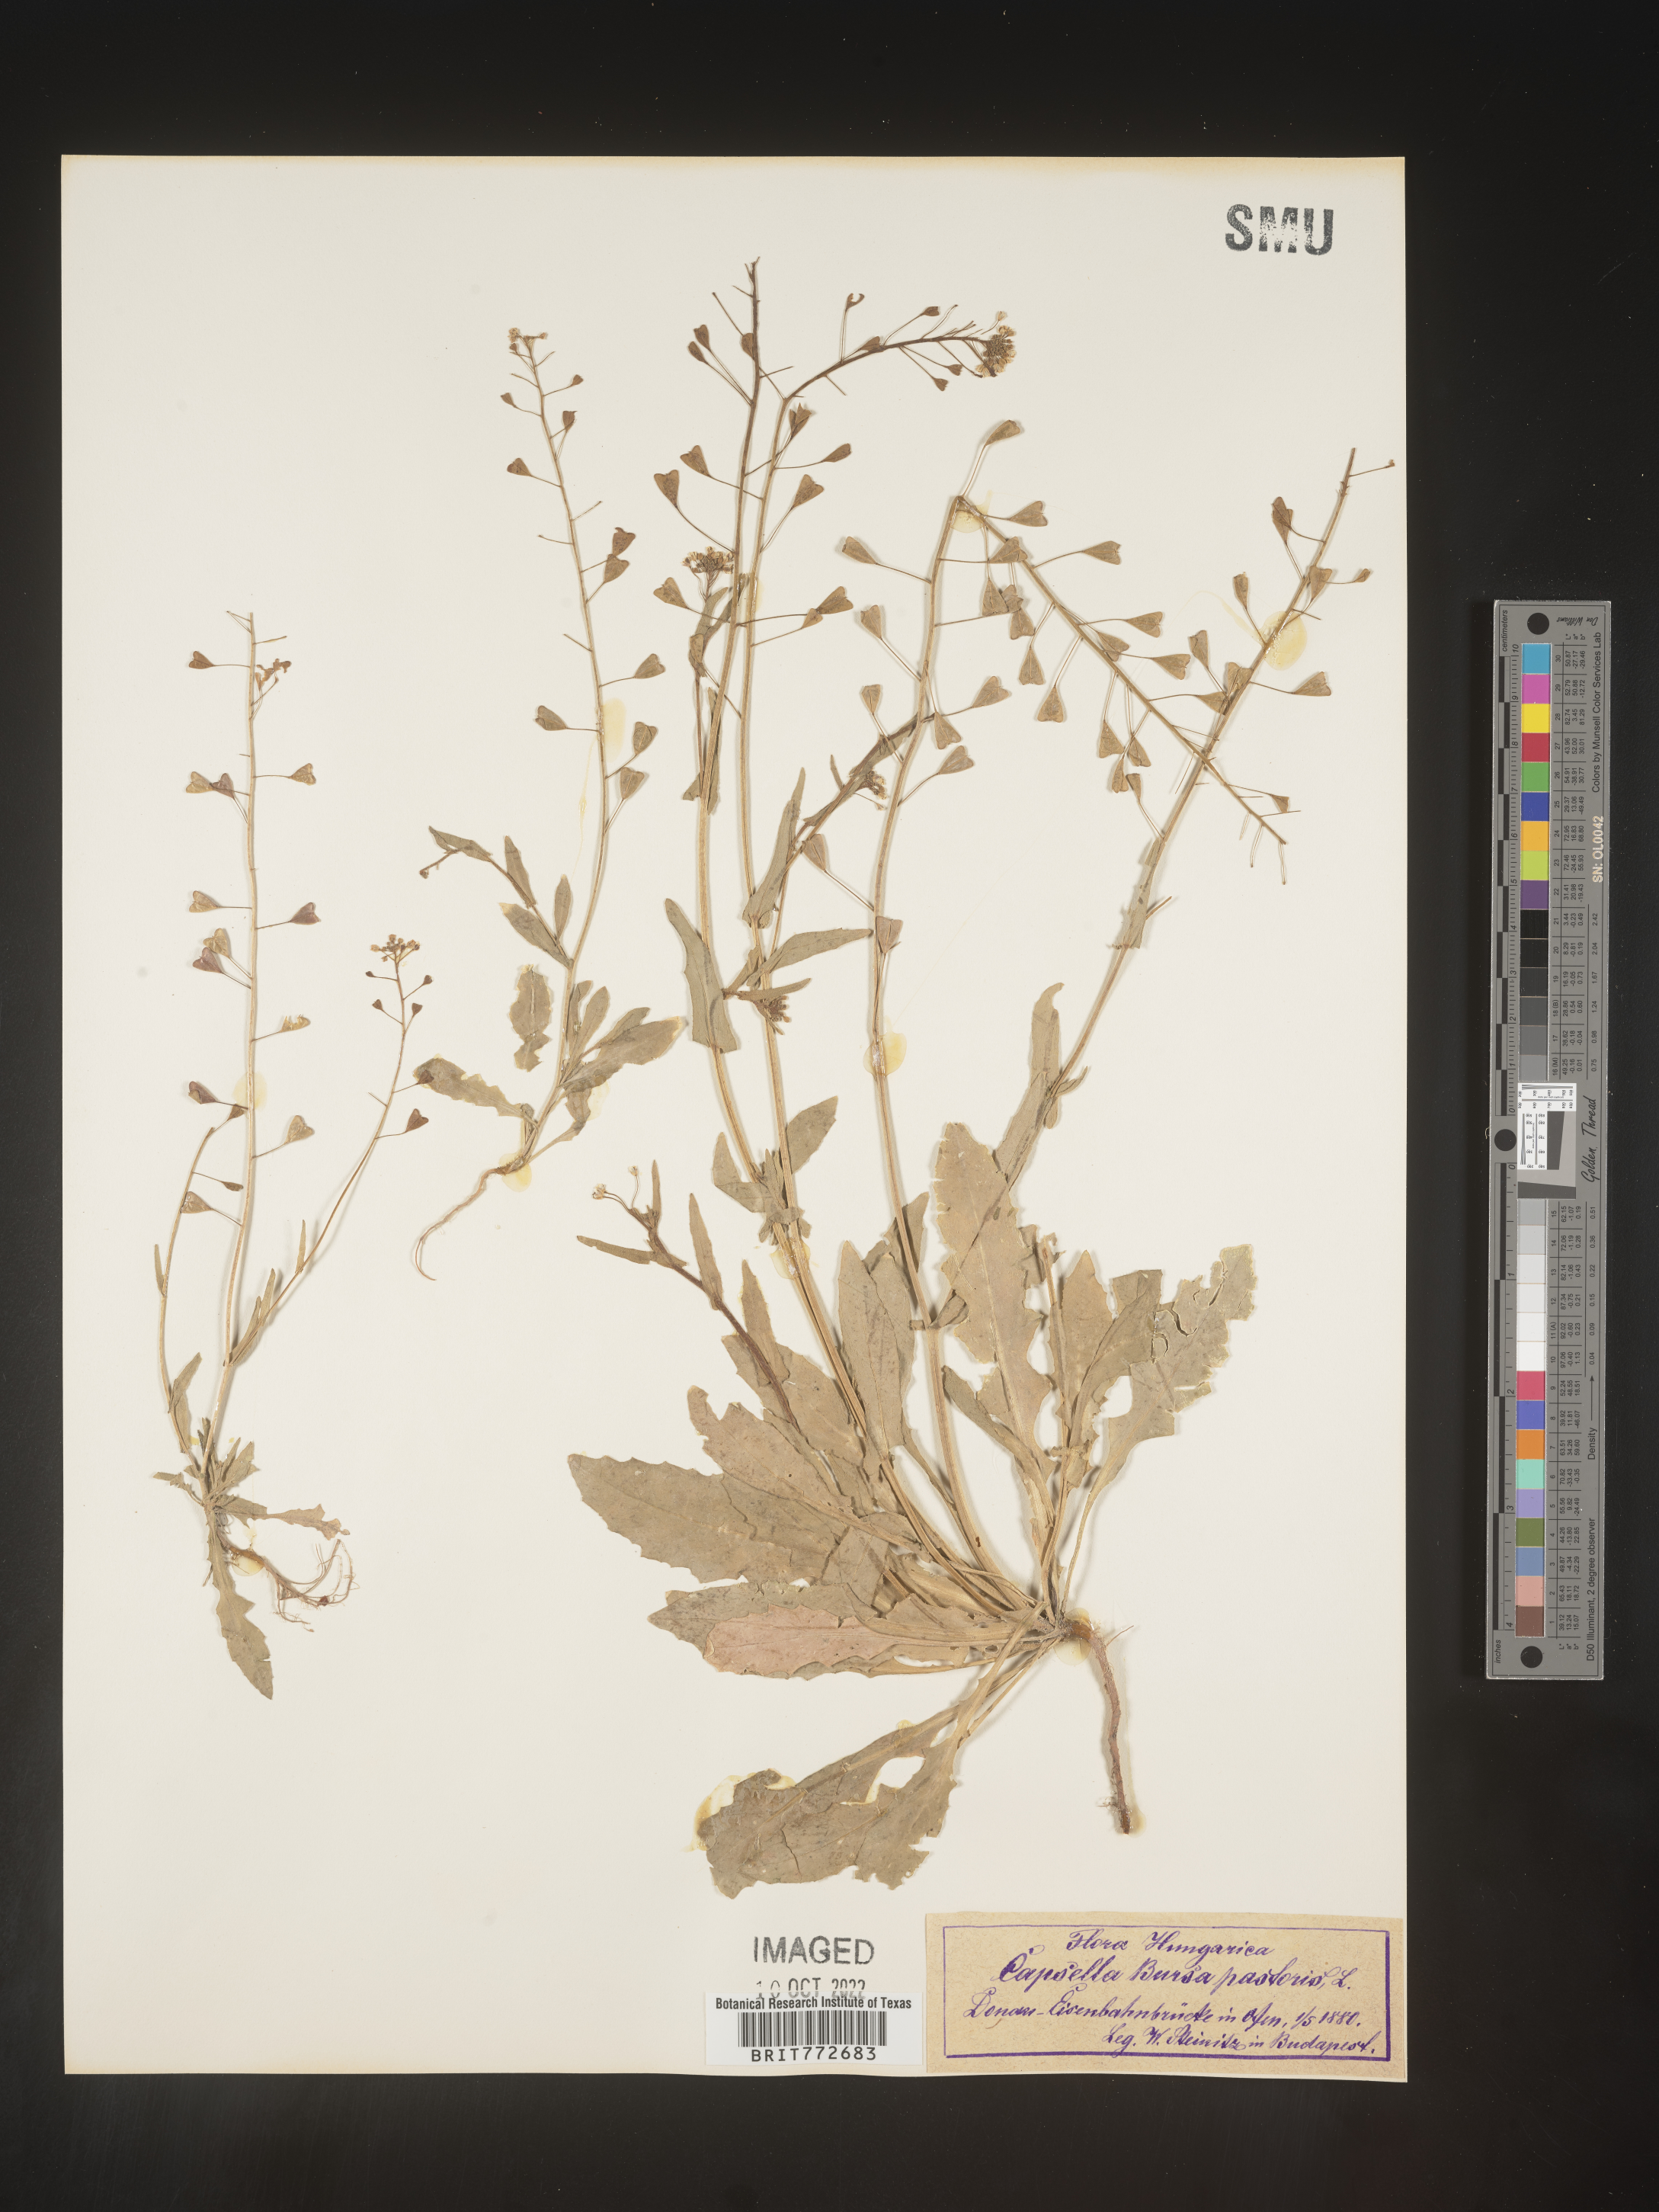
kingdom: Plantae
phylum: Tracheophyta
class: Magnoliopsida
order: Brassicales
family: Brassicaceae
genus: Capsella
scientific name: Capsella
